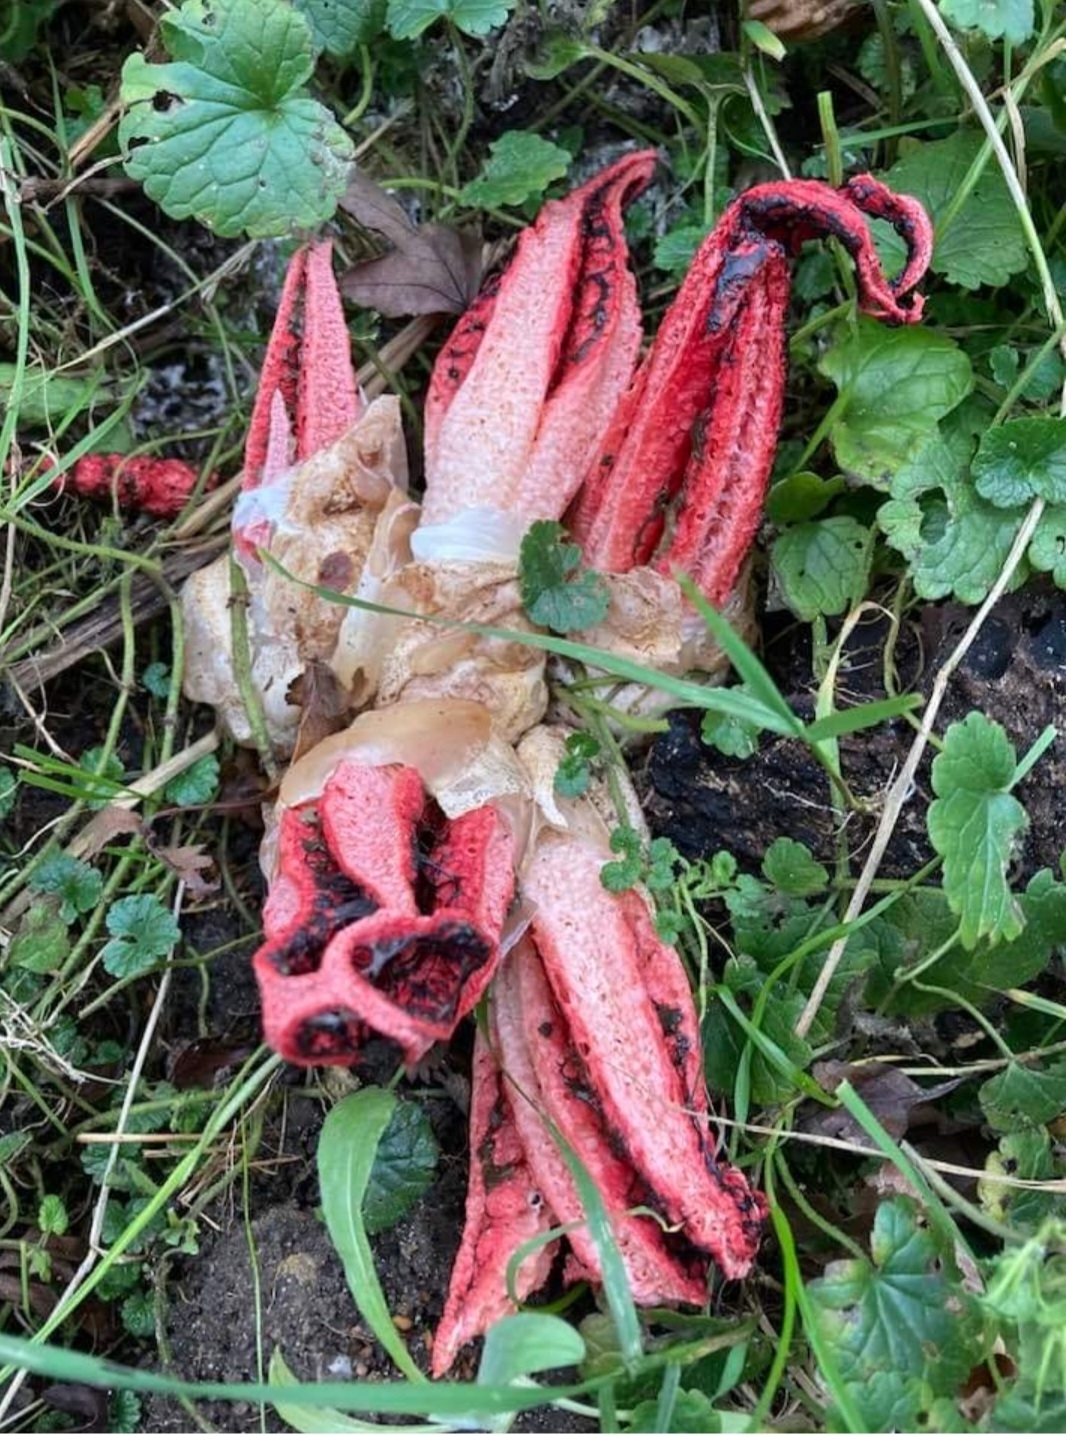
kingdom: Fungi
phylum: Basidiomycota
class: Agaricomycetes
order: Phallales
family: Phallaceae
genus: Clathrus
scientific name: Clathrus archeri
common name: blækspruttesvamp
